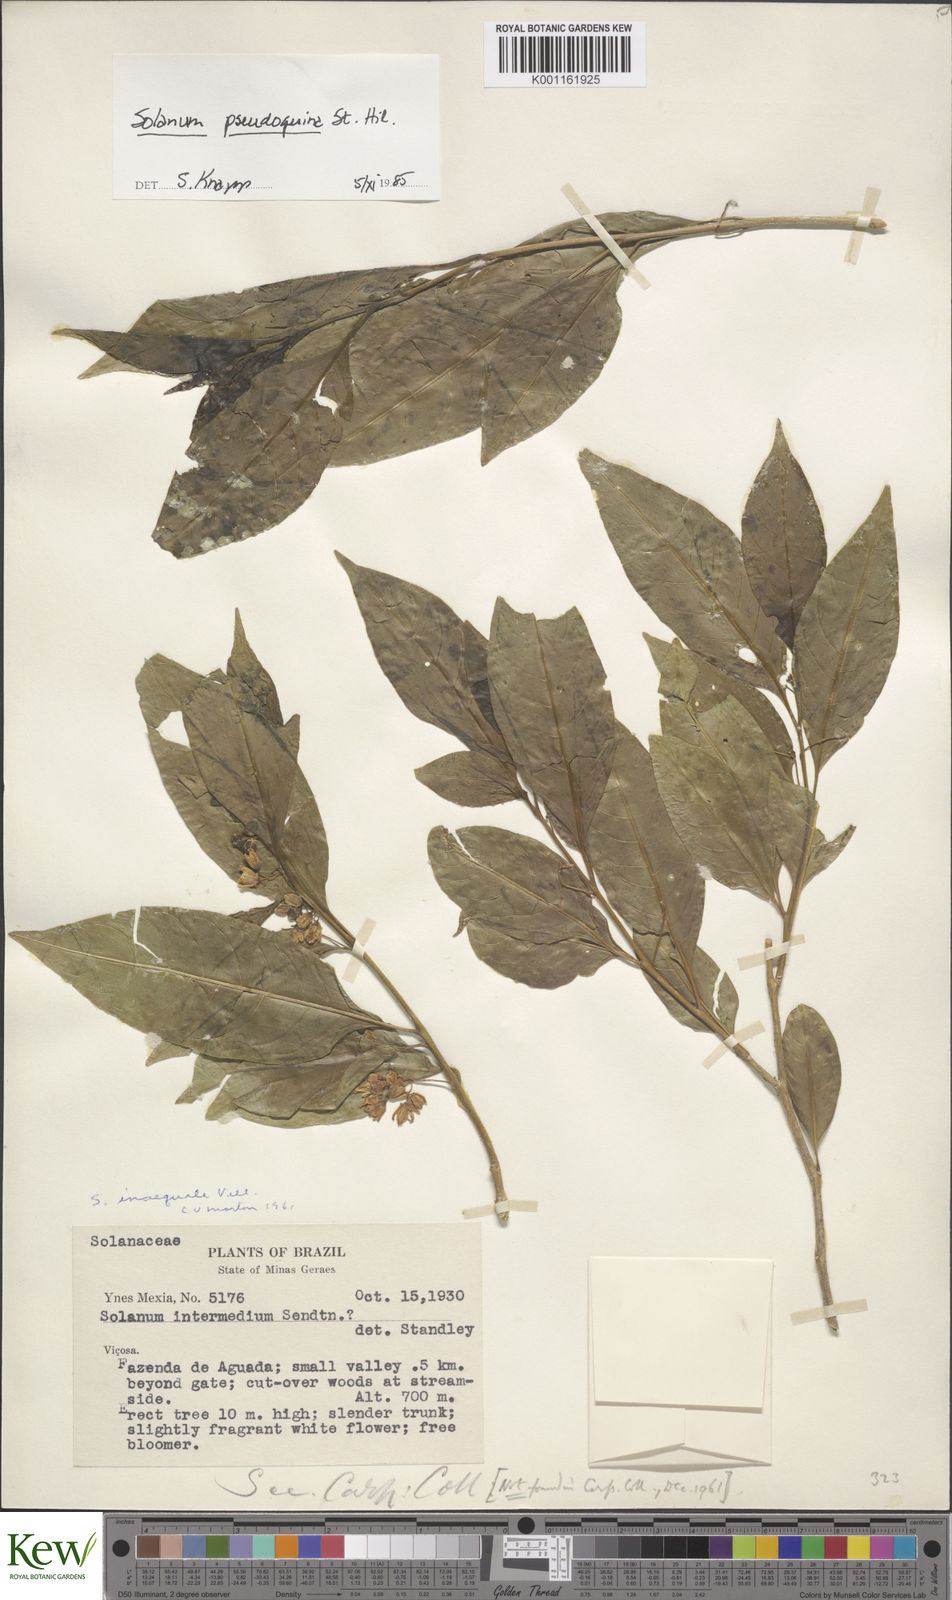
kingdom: Plantae
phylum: Tracheophyta
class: Magnoliopsida
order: Solanales
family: Solanaceae
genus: Solanum
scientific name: Solanum pseudoquina
